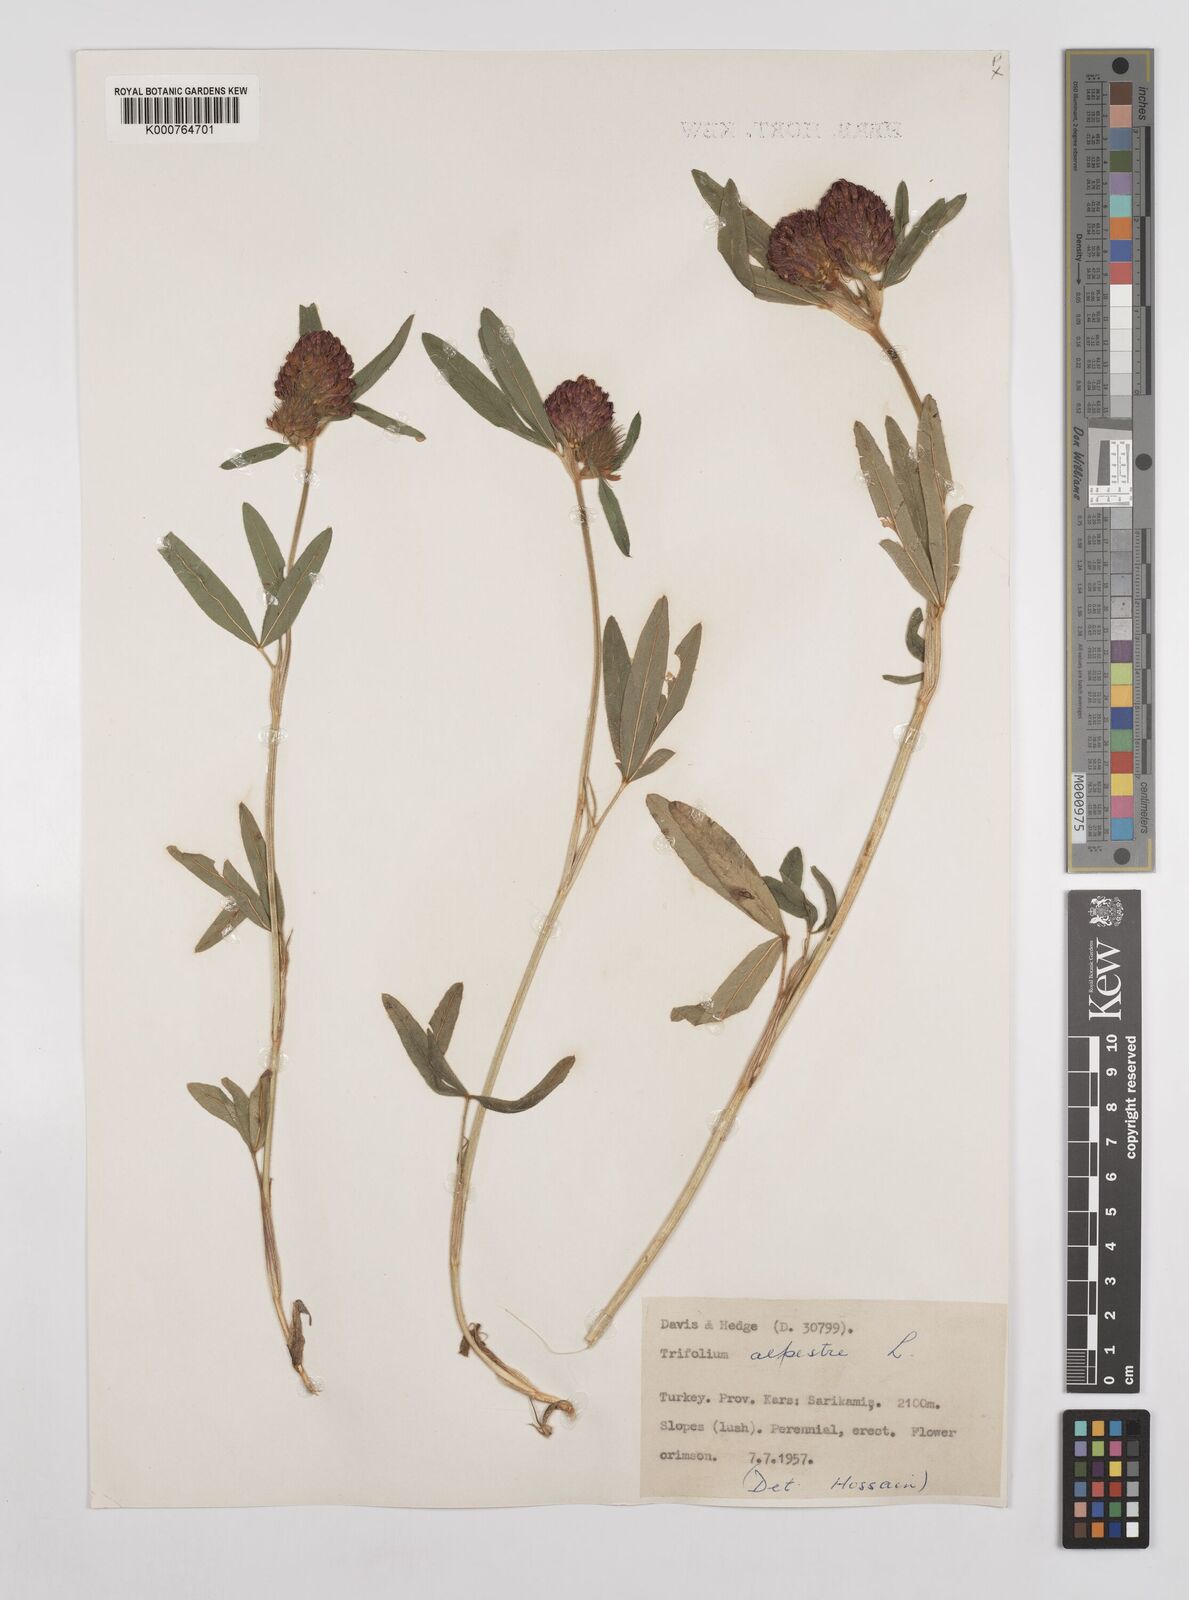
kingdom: Plantae
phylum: Tracheophyta
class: Magnoliopsida
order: Fabales
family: Fabaceae
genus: Trifolium
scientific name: Trifolium alpestre
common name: Owl-head clover
